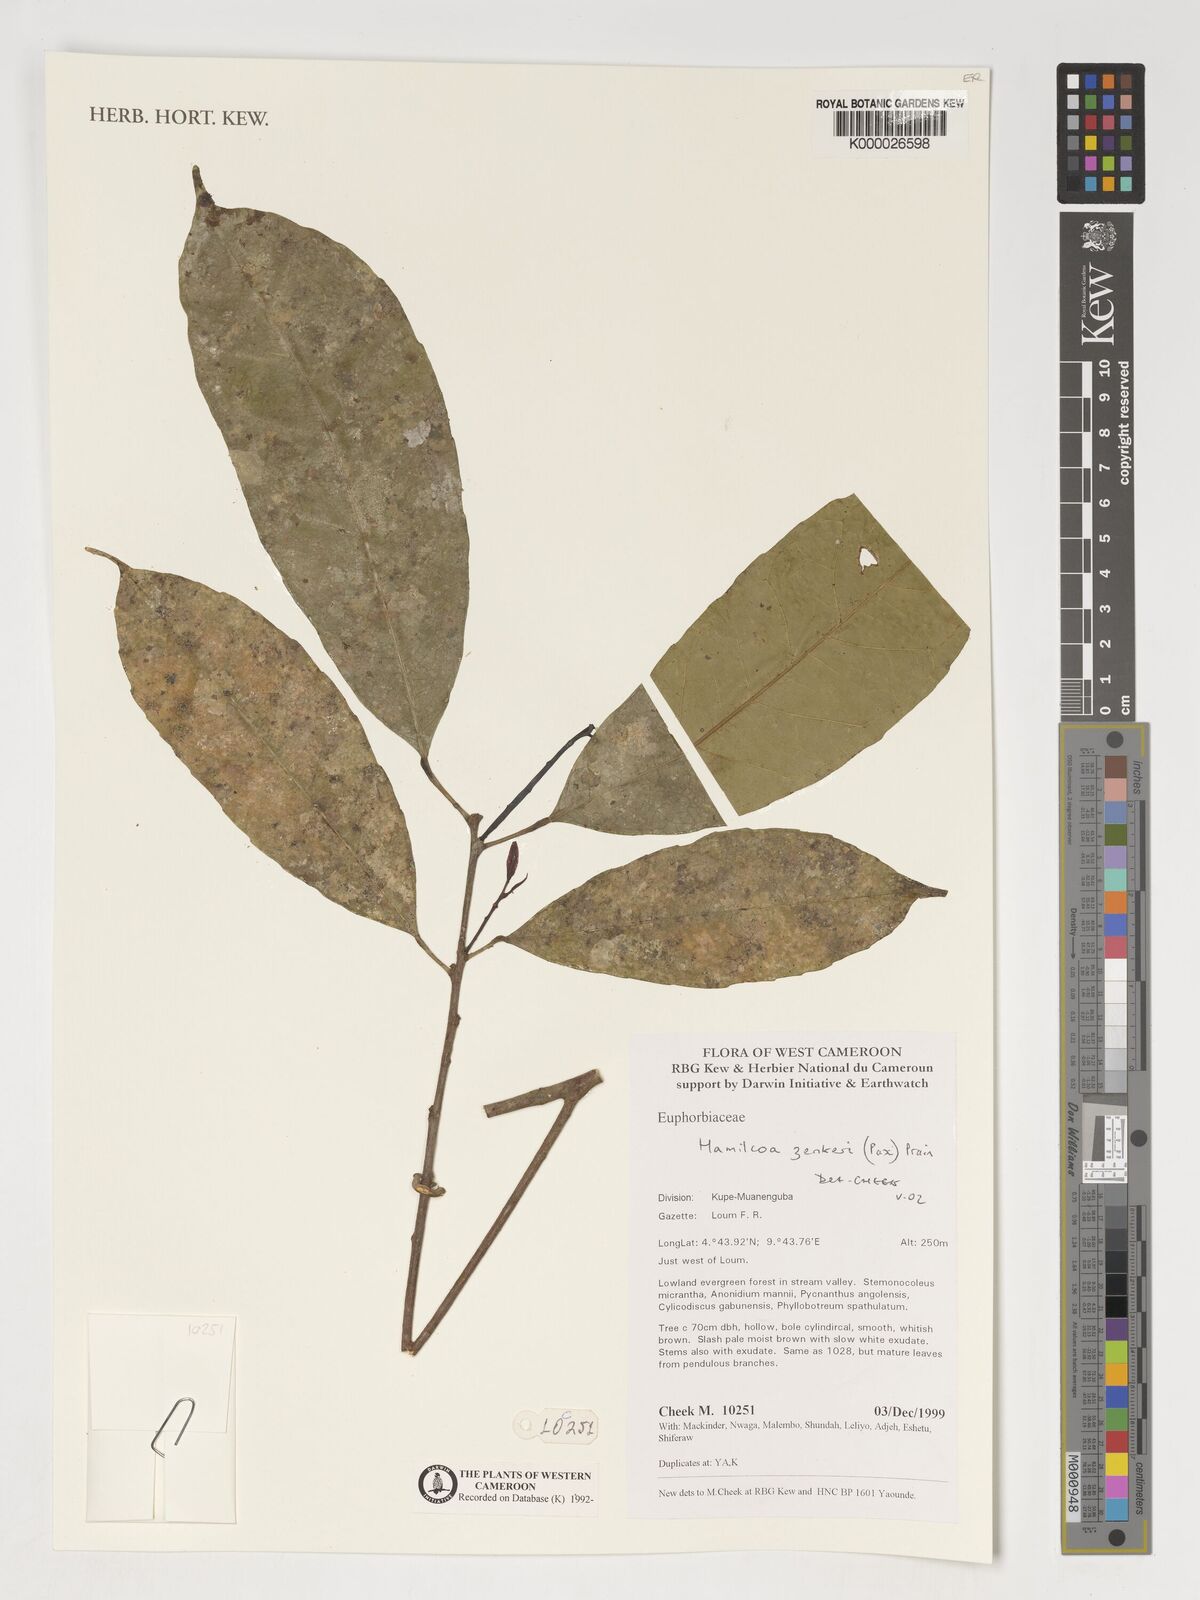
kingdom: Plantae
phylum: Tracheophyta
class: Magnoliopsida
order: Malpighiales
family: Euphorbiaceae
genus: Hamilcoa
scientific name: Hamilcoa zenkeri
